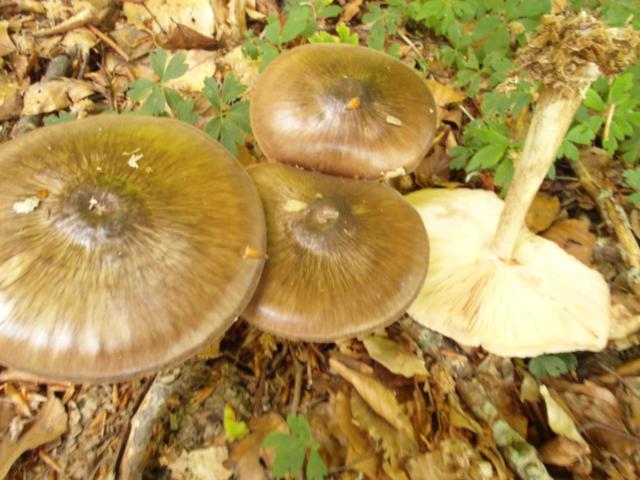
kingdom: Fungi
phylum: Basidiomycota
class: Agaricomycetes
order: Agaricales
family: Pluteaceae
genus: Pluteus
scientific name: Pluteus cervinus
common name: sodfarvet skærmhat
